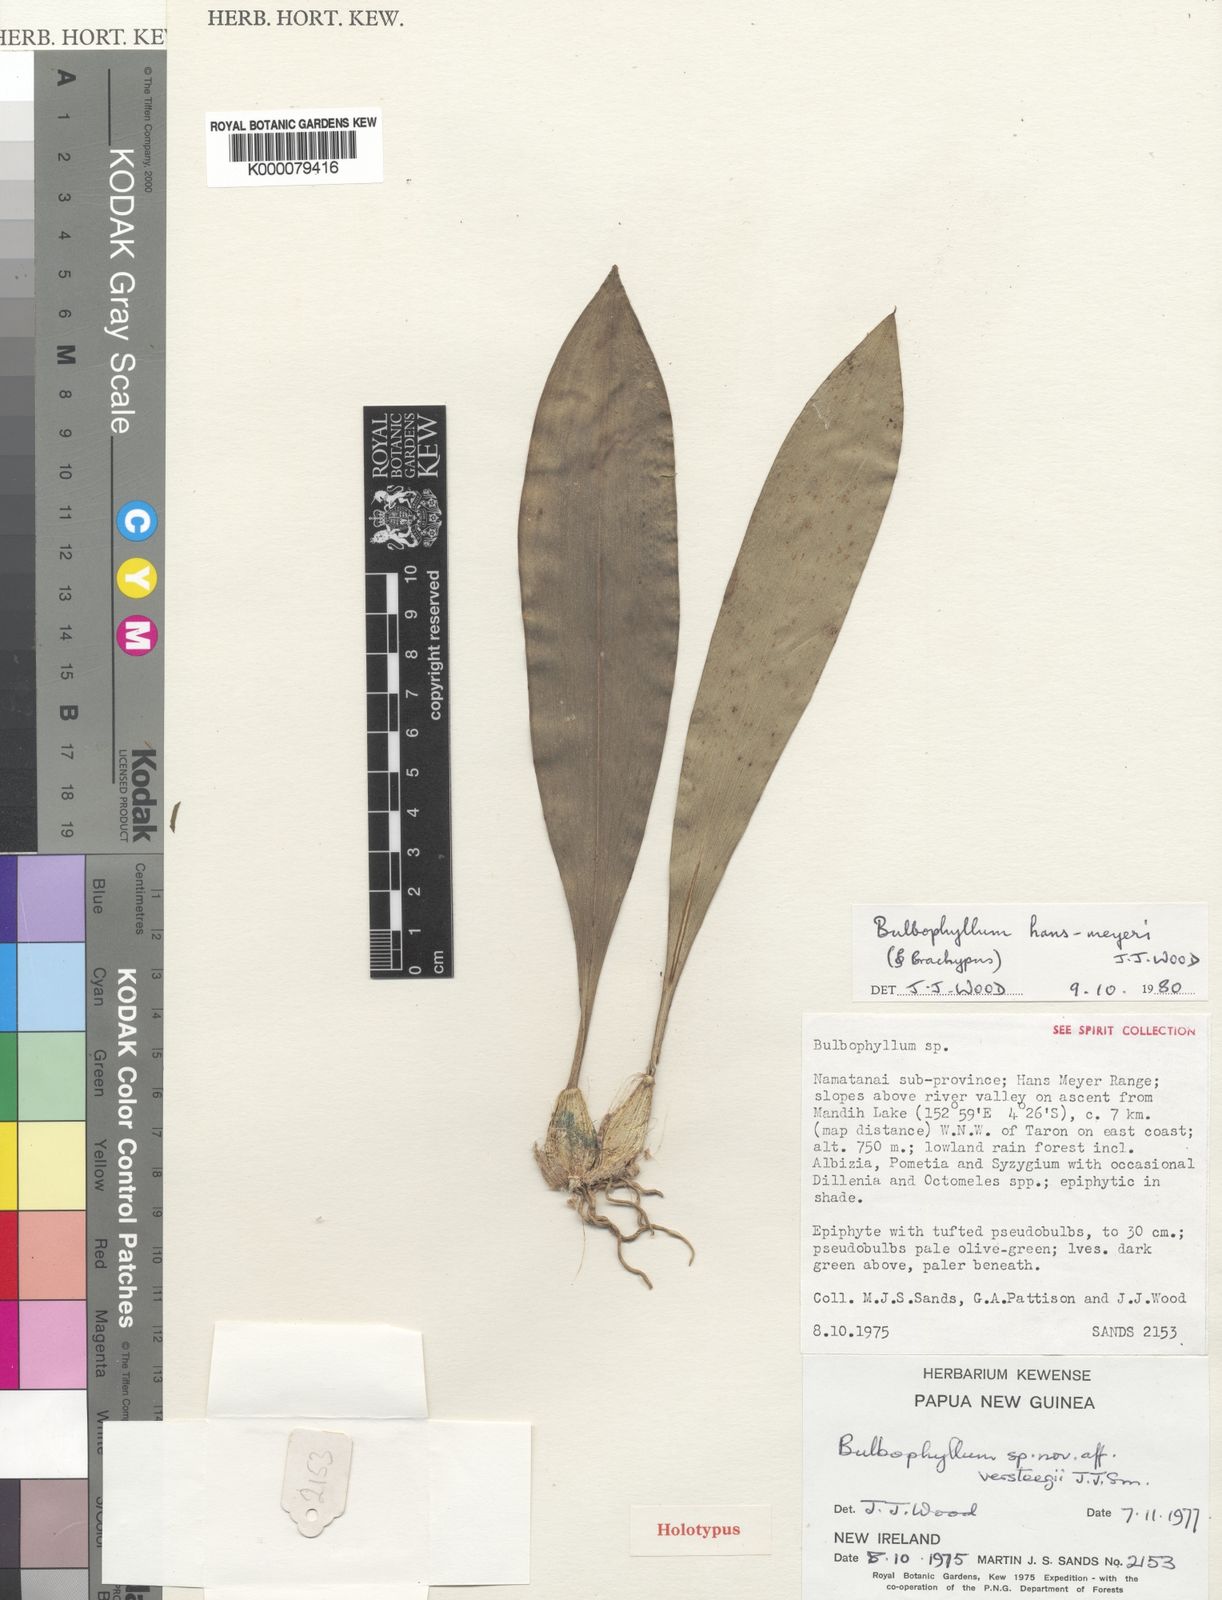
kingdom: Plantae
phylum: Tracheophyta
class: Liliopsida
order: Asparagales
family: Orchidaceae
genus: Bulbophyllum
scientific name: Bulbophyllum hans-meyeri
